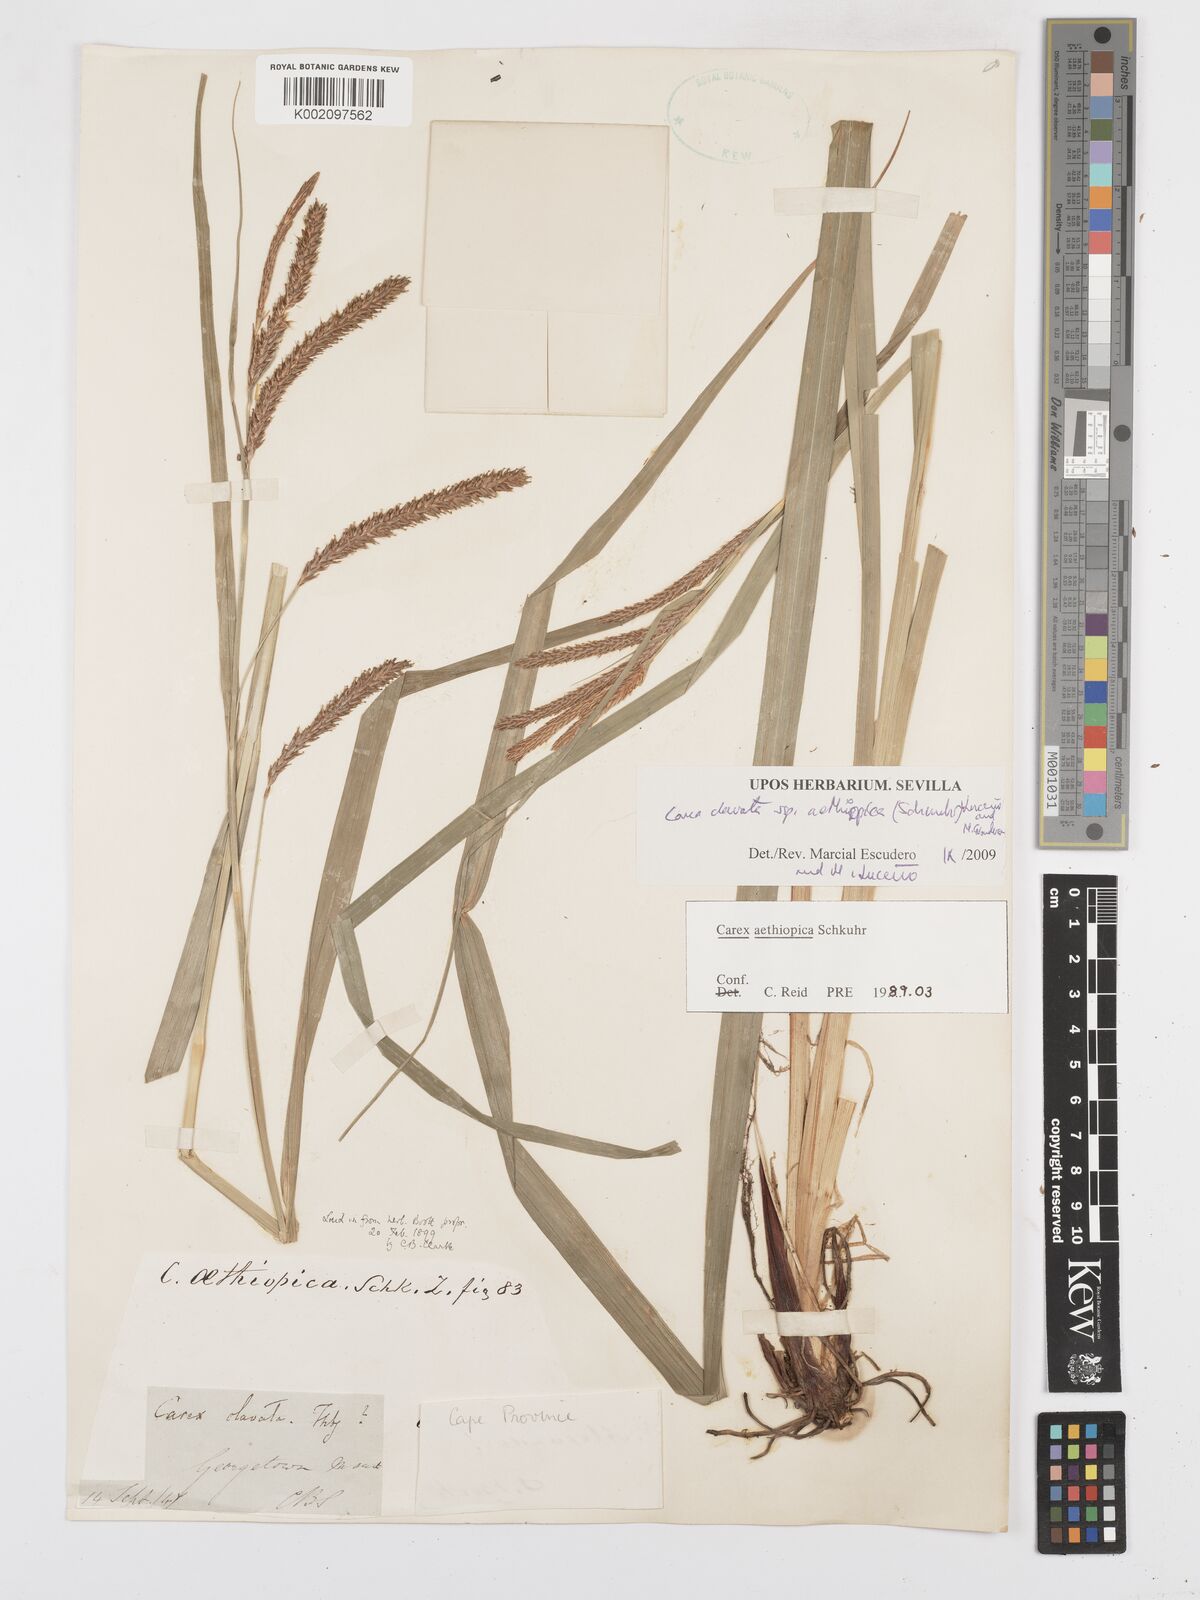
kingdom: Plantae
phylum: Tracheophyta
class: Liliopsida
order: Poales
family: Cyperaceae
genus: Carex
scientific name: Carex aethiopica
